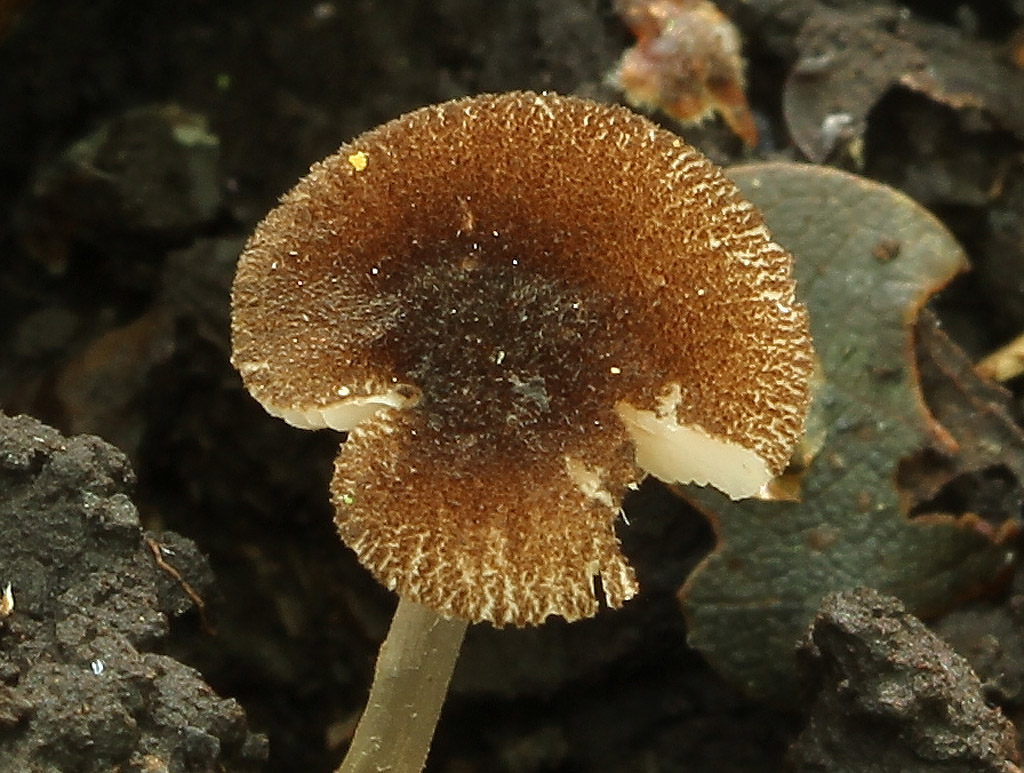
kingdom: Fungi
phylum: Basidiomycota
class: Agaricomycetes
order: Agaricales
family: Pluteaceae
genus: Pluteus
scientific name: Pluteus podospileus
